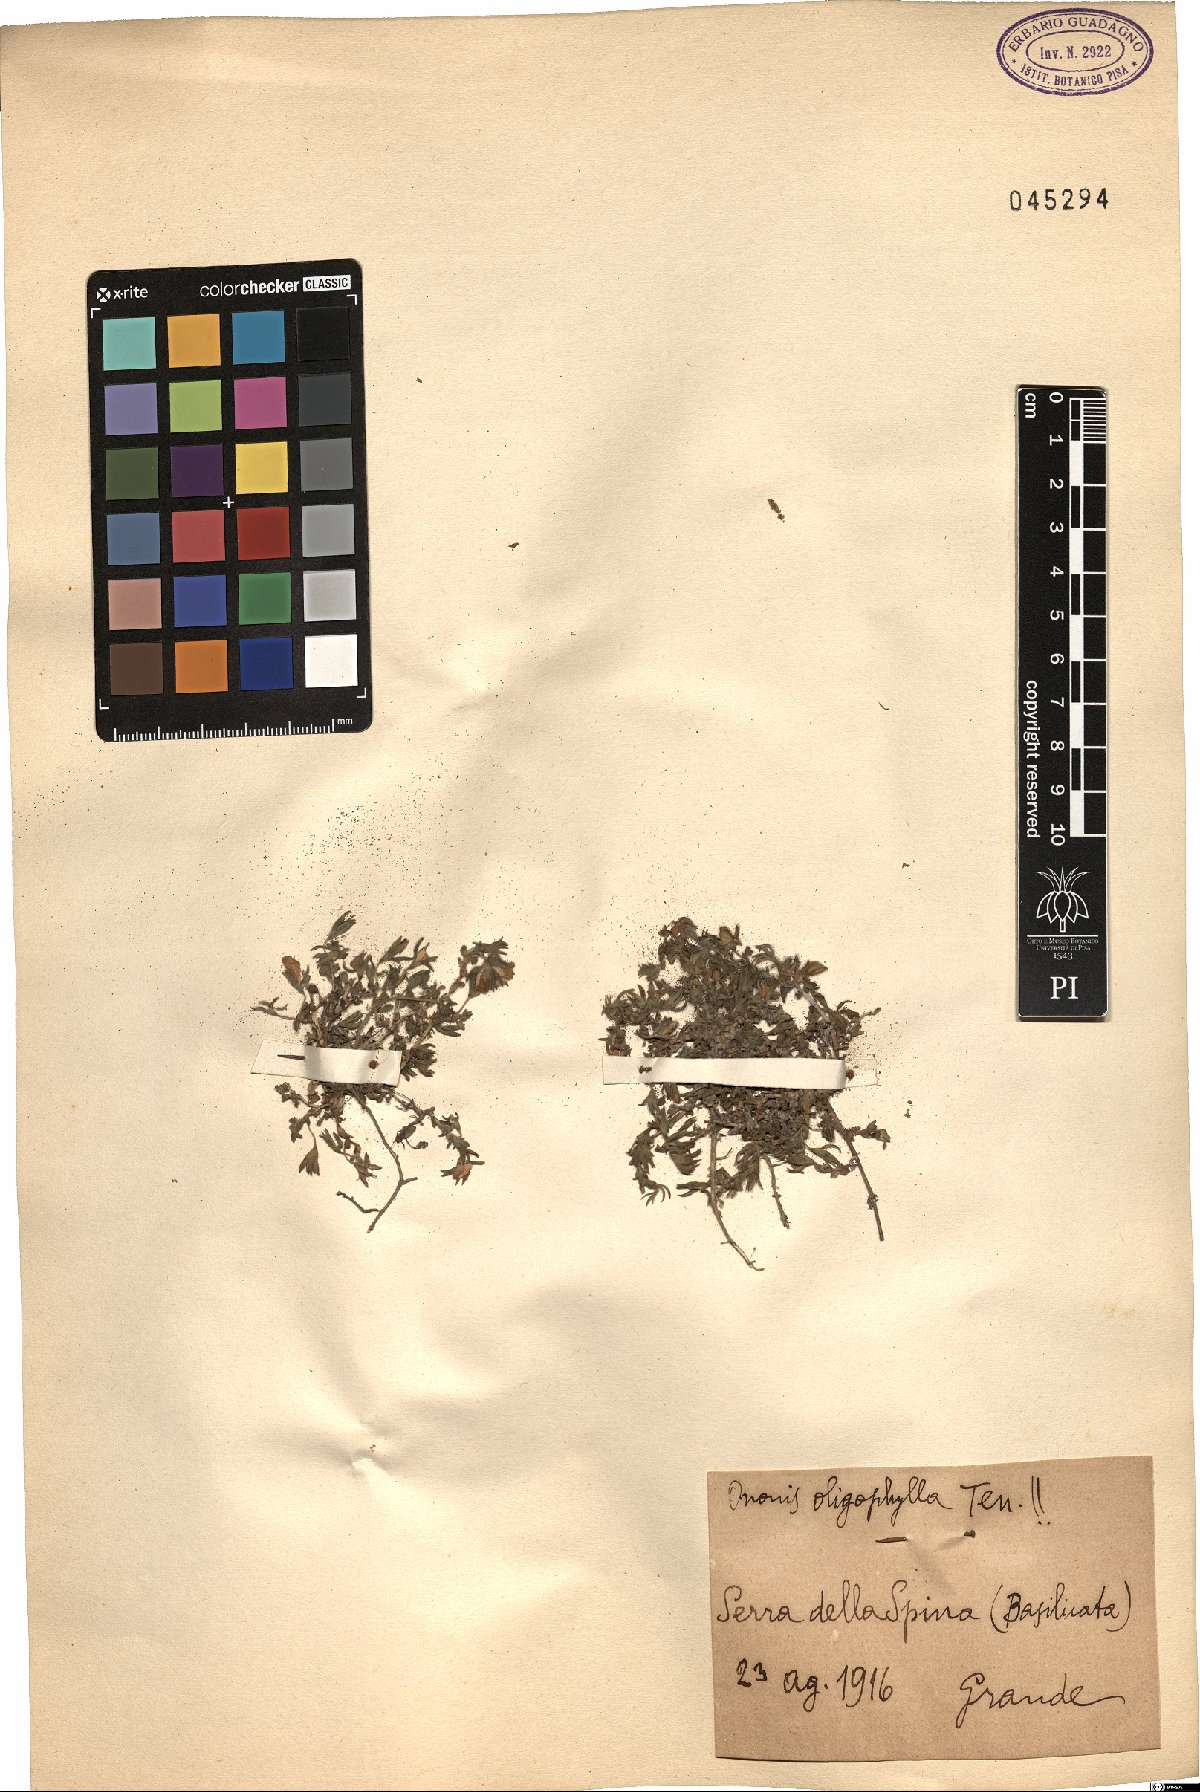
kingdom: Plantae
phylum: Tracheophyta
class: Magnoliopsida
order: Fabales
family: Fabaceae
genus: Ononis
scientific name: Ononis oligophylla
